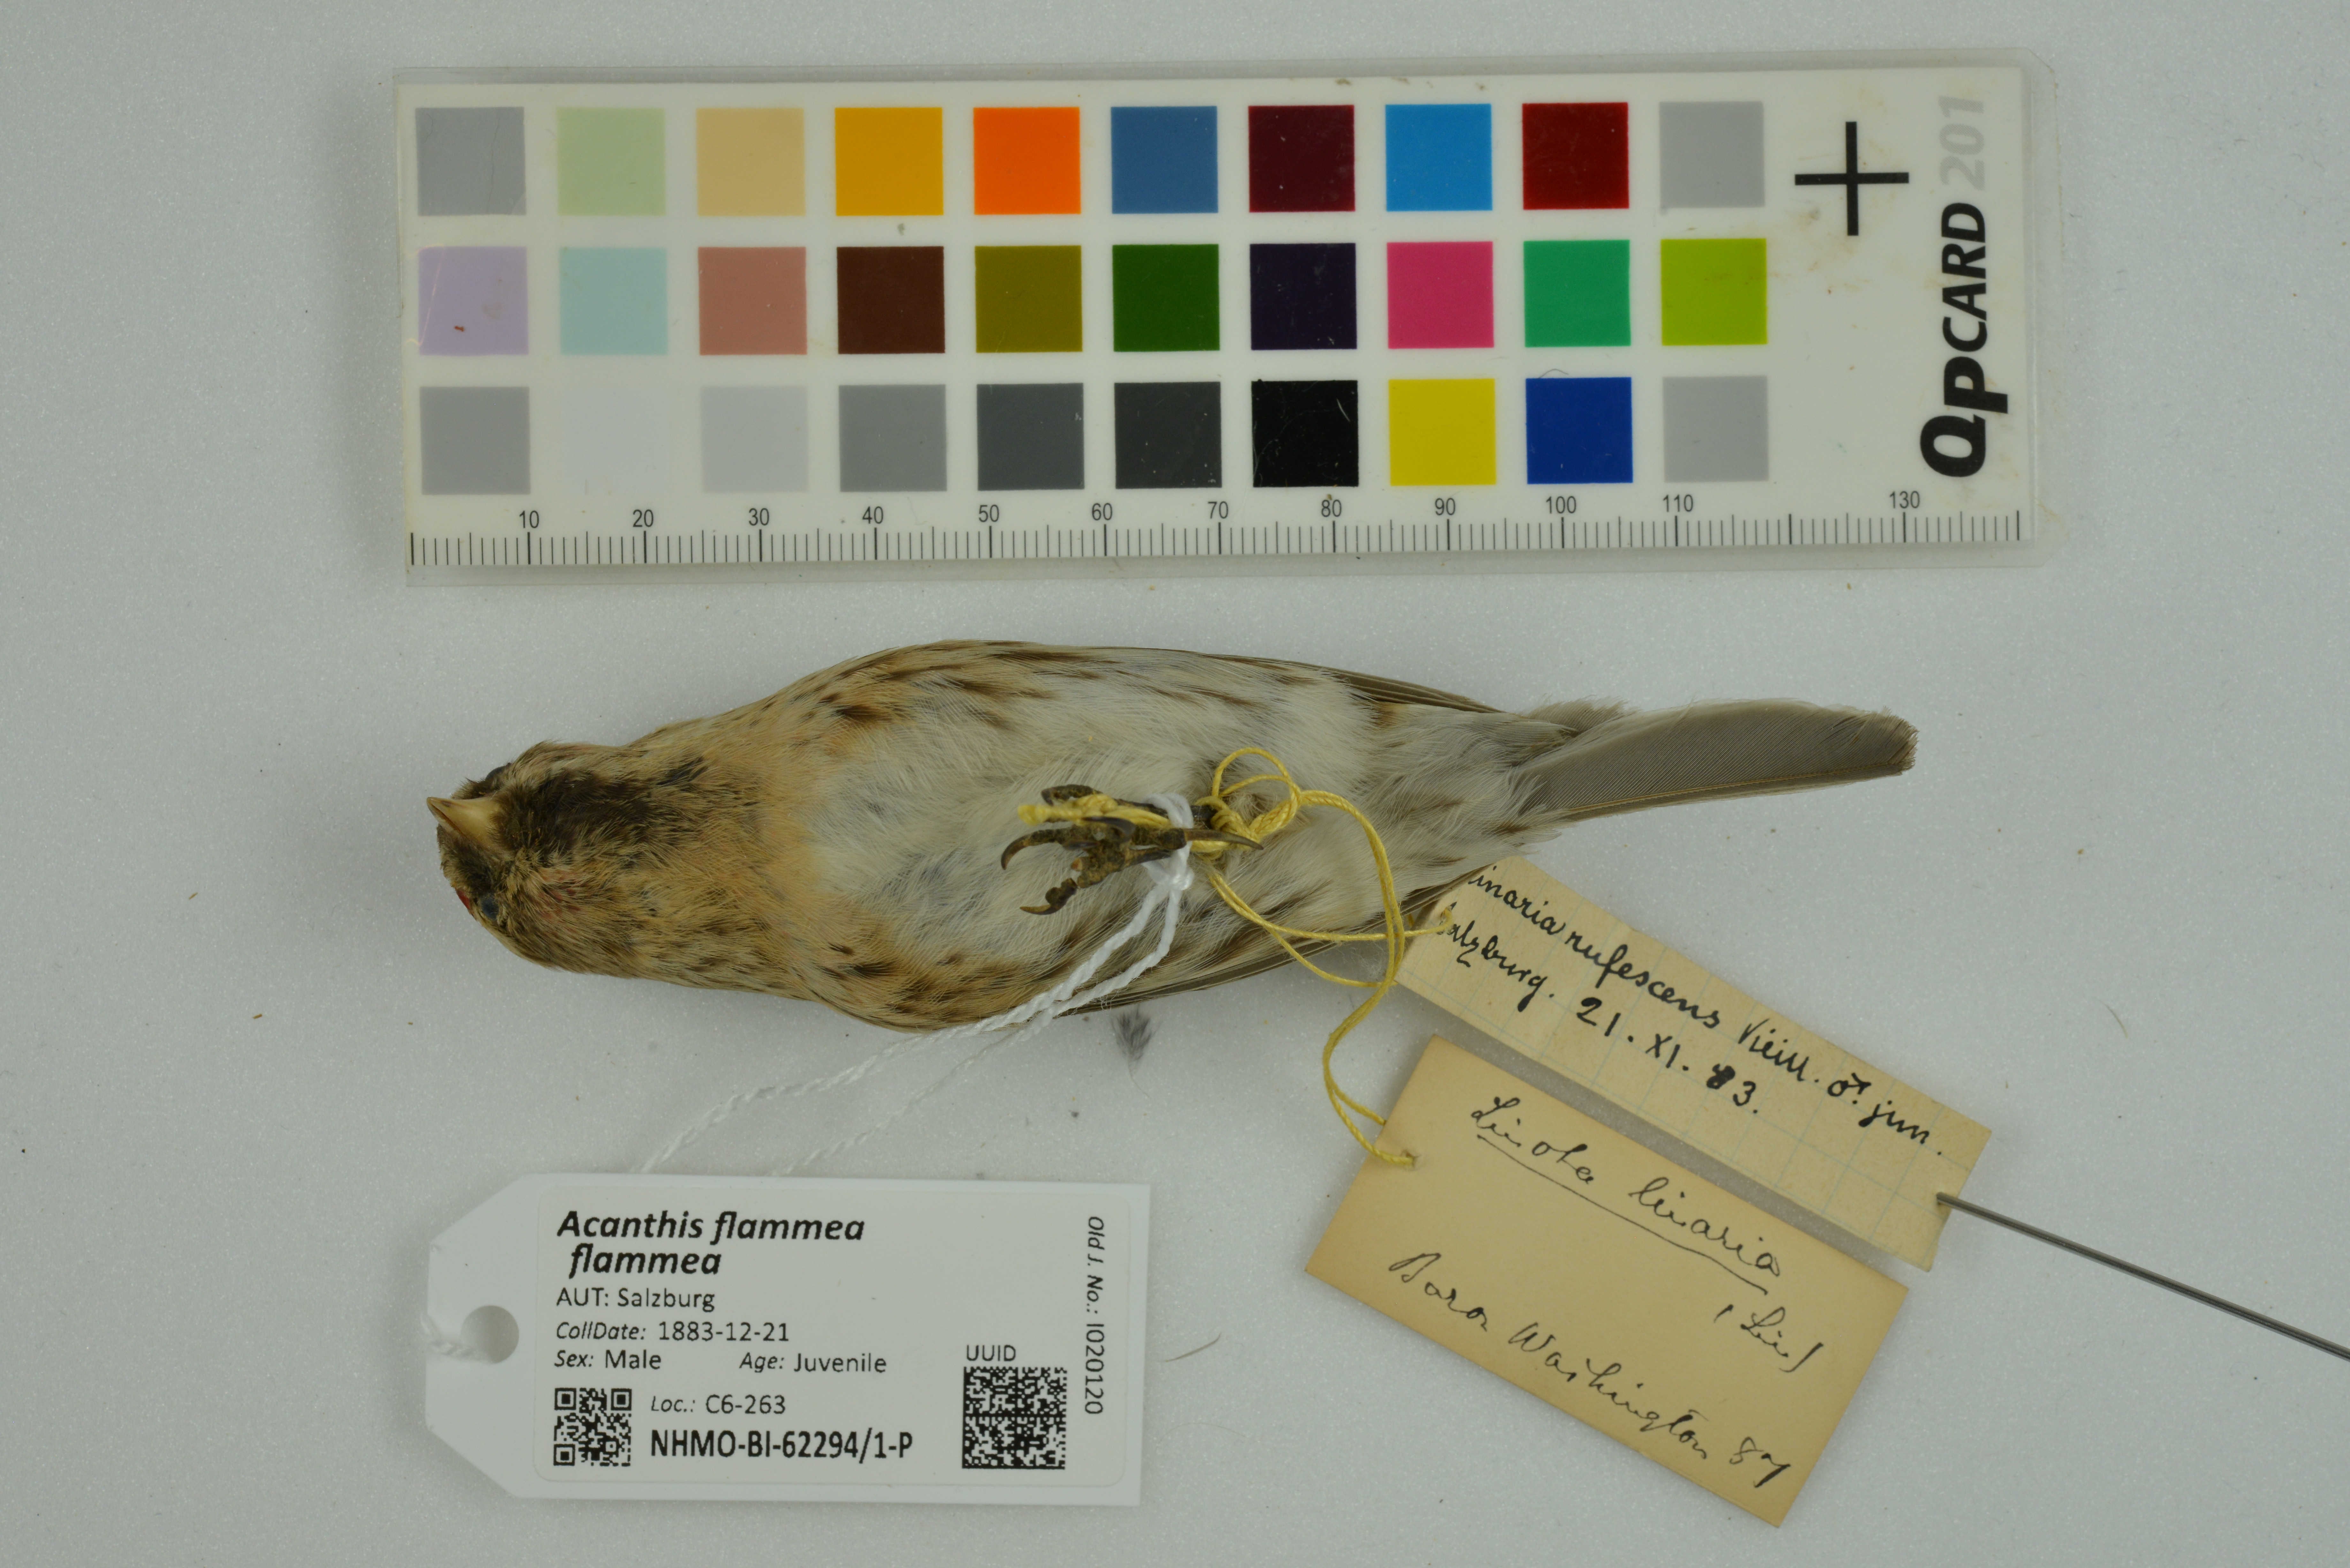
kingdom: Animalia
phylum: Chordata
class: Aves
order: Passeriformes
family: Fringillidae
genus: Acanthis
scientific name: Acanthis flammea
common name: Common redpoll
